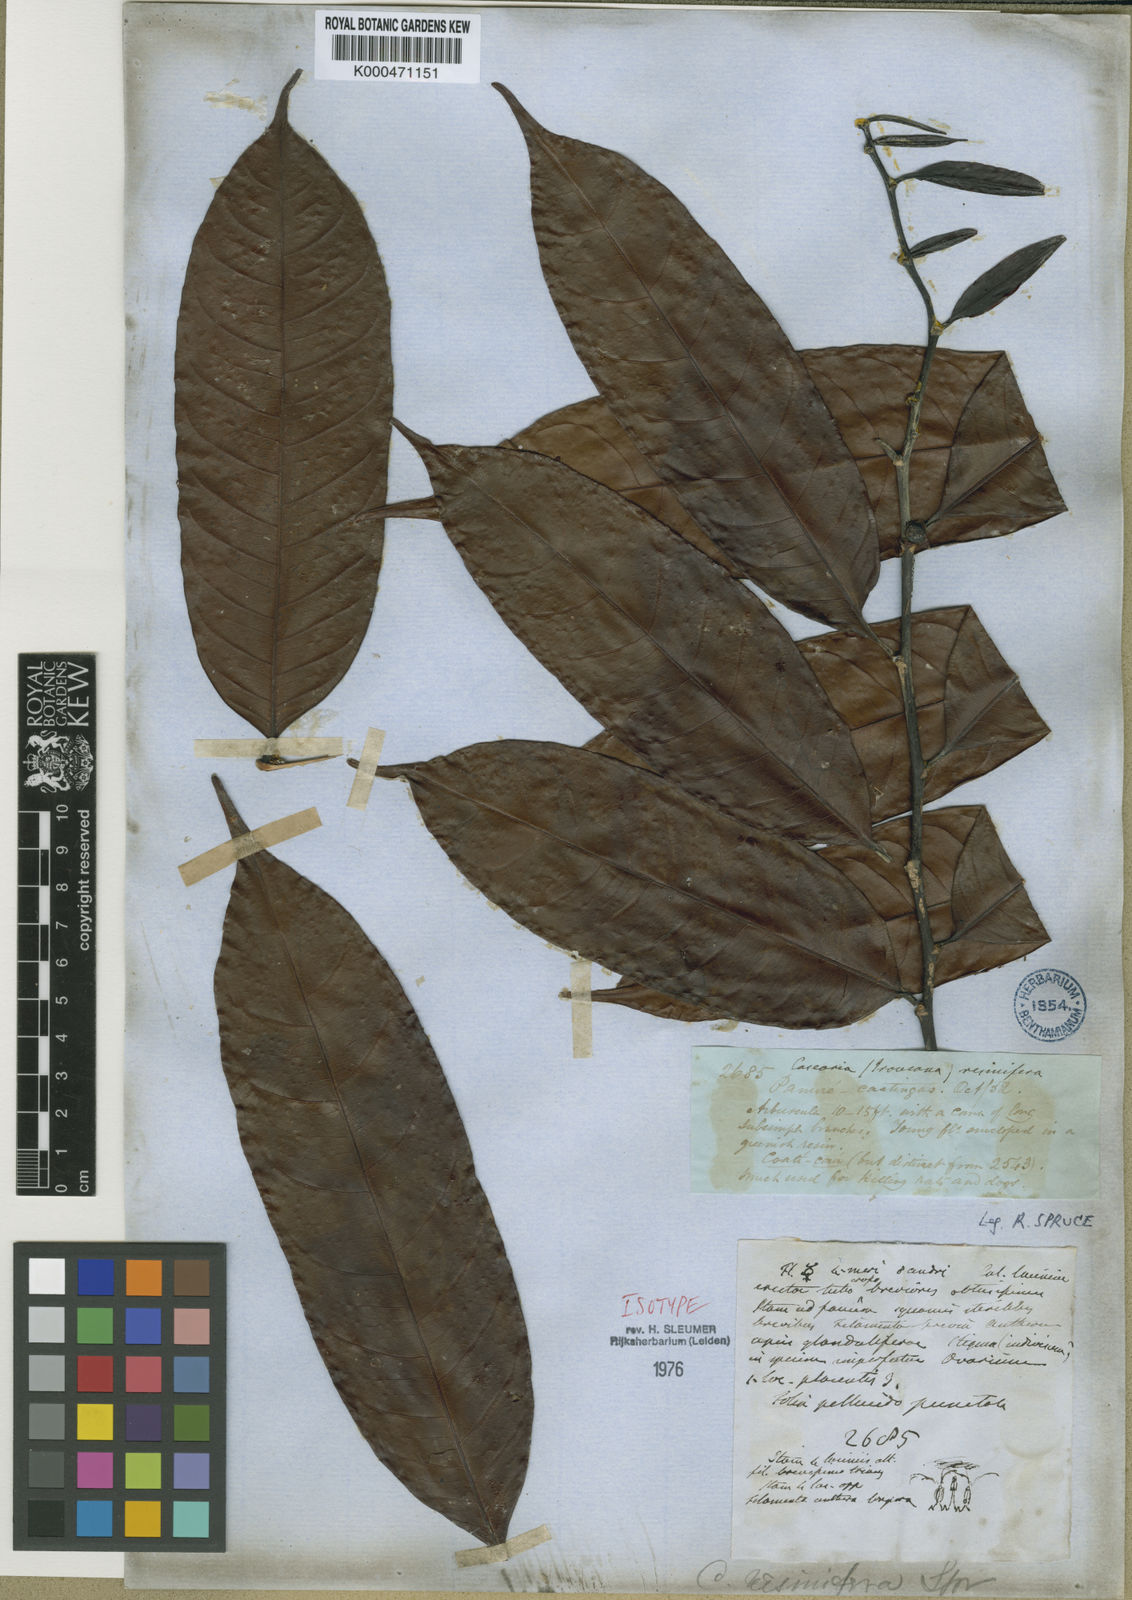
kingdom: Plantae
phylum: Tracheophyta
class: Magnoliopsida
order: Malpighiales
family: Salicaceae
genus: Casearia
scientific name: Casearia resinifera
